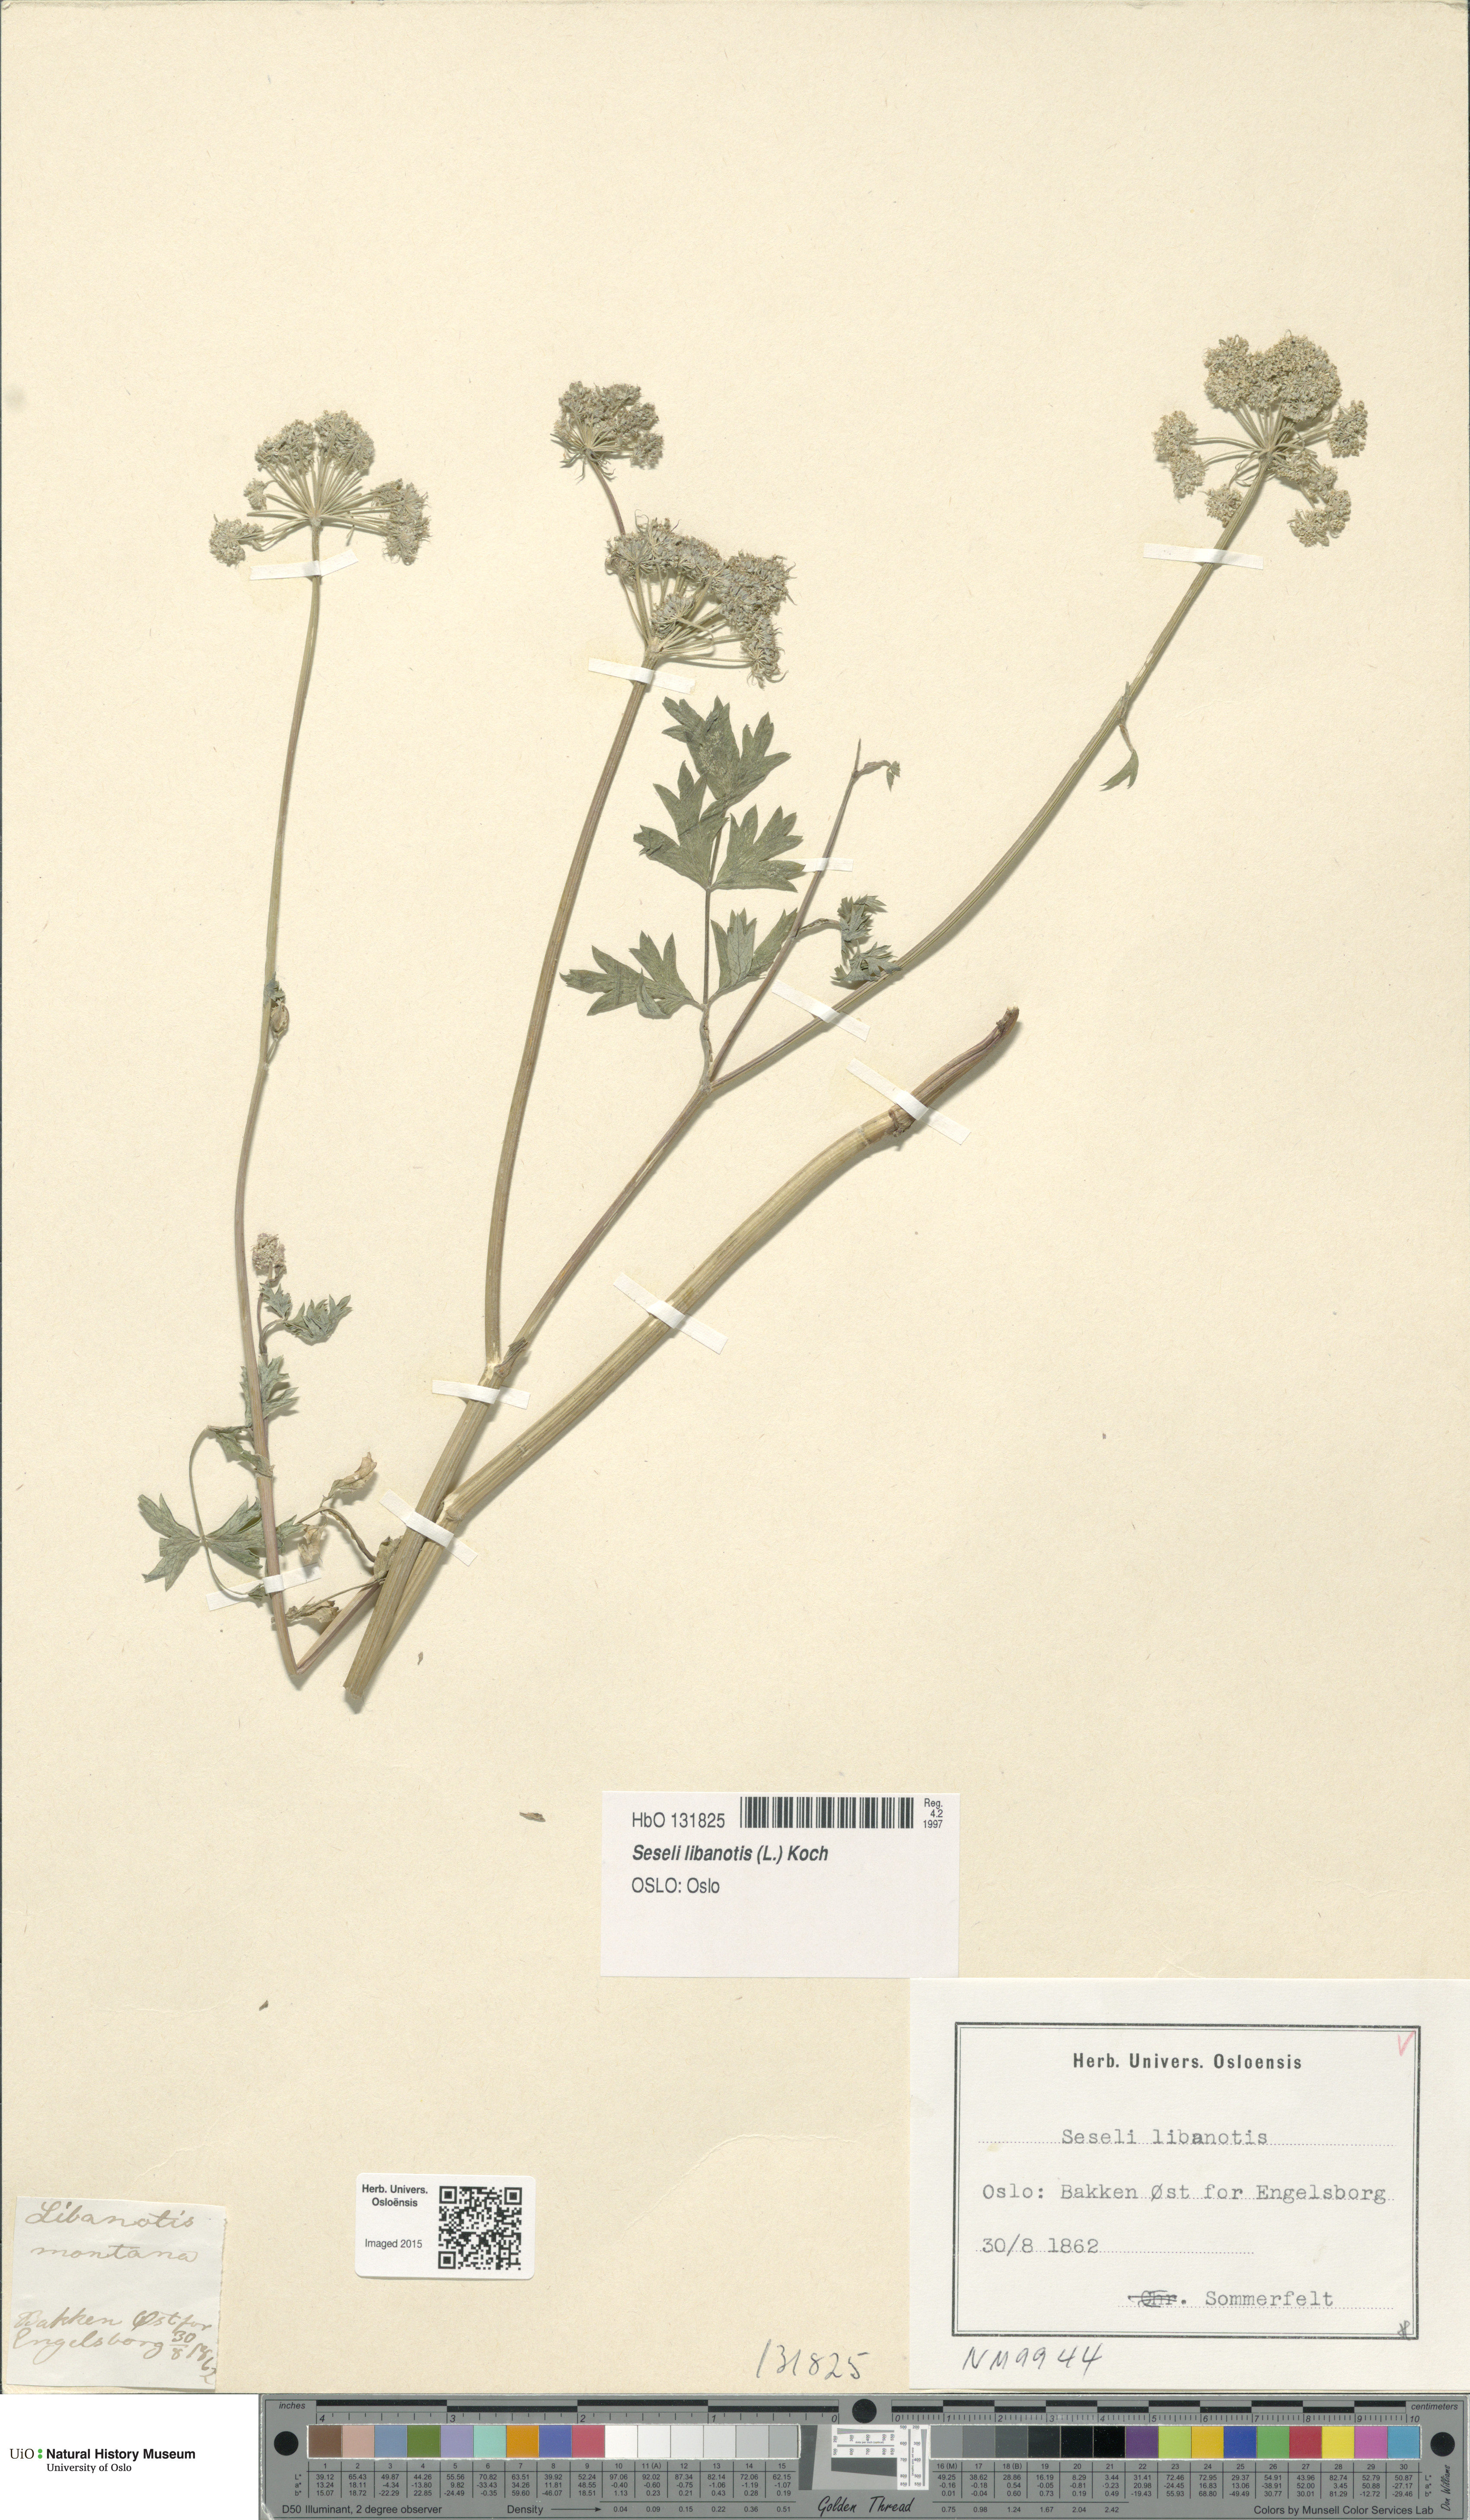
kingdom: Plantae
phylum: Tracheophyta
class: Magnoliopsida
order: Apiales
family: Apiaceae
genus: Seseli
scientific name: Seseli libanotis
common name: Mooncarrot
